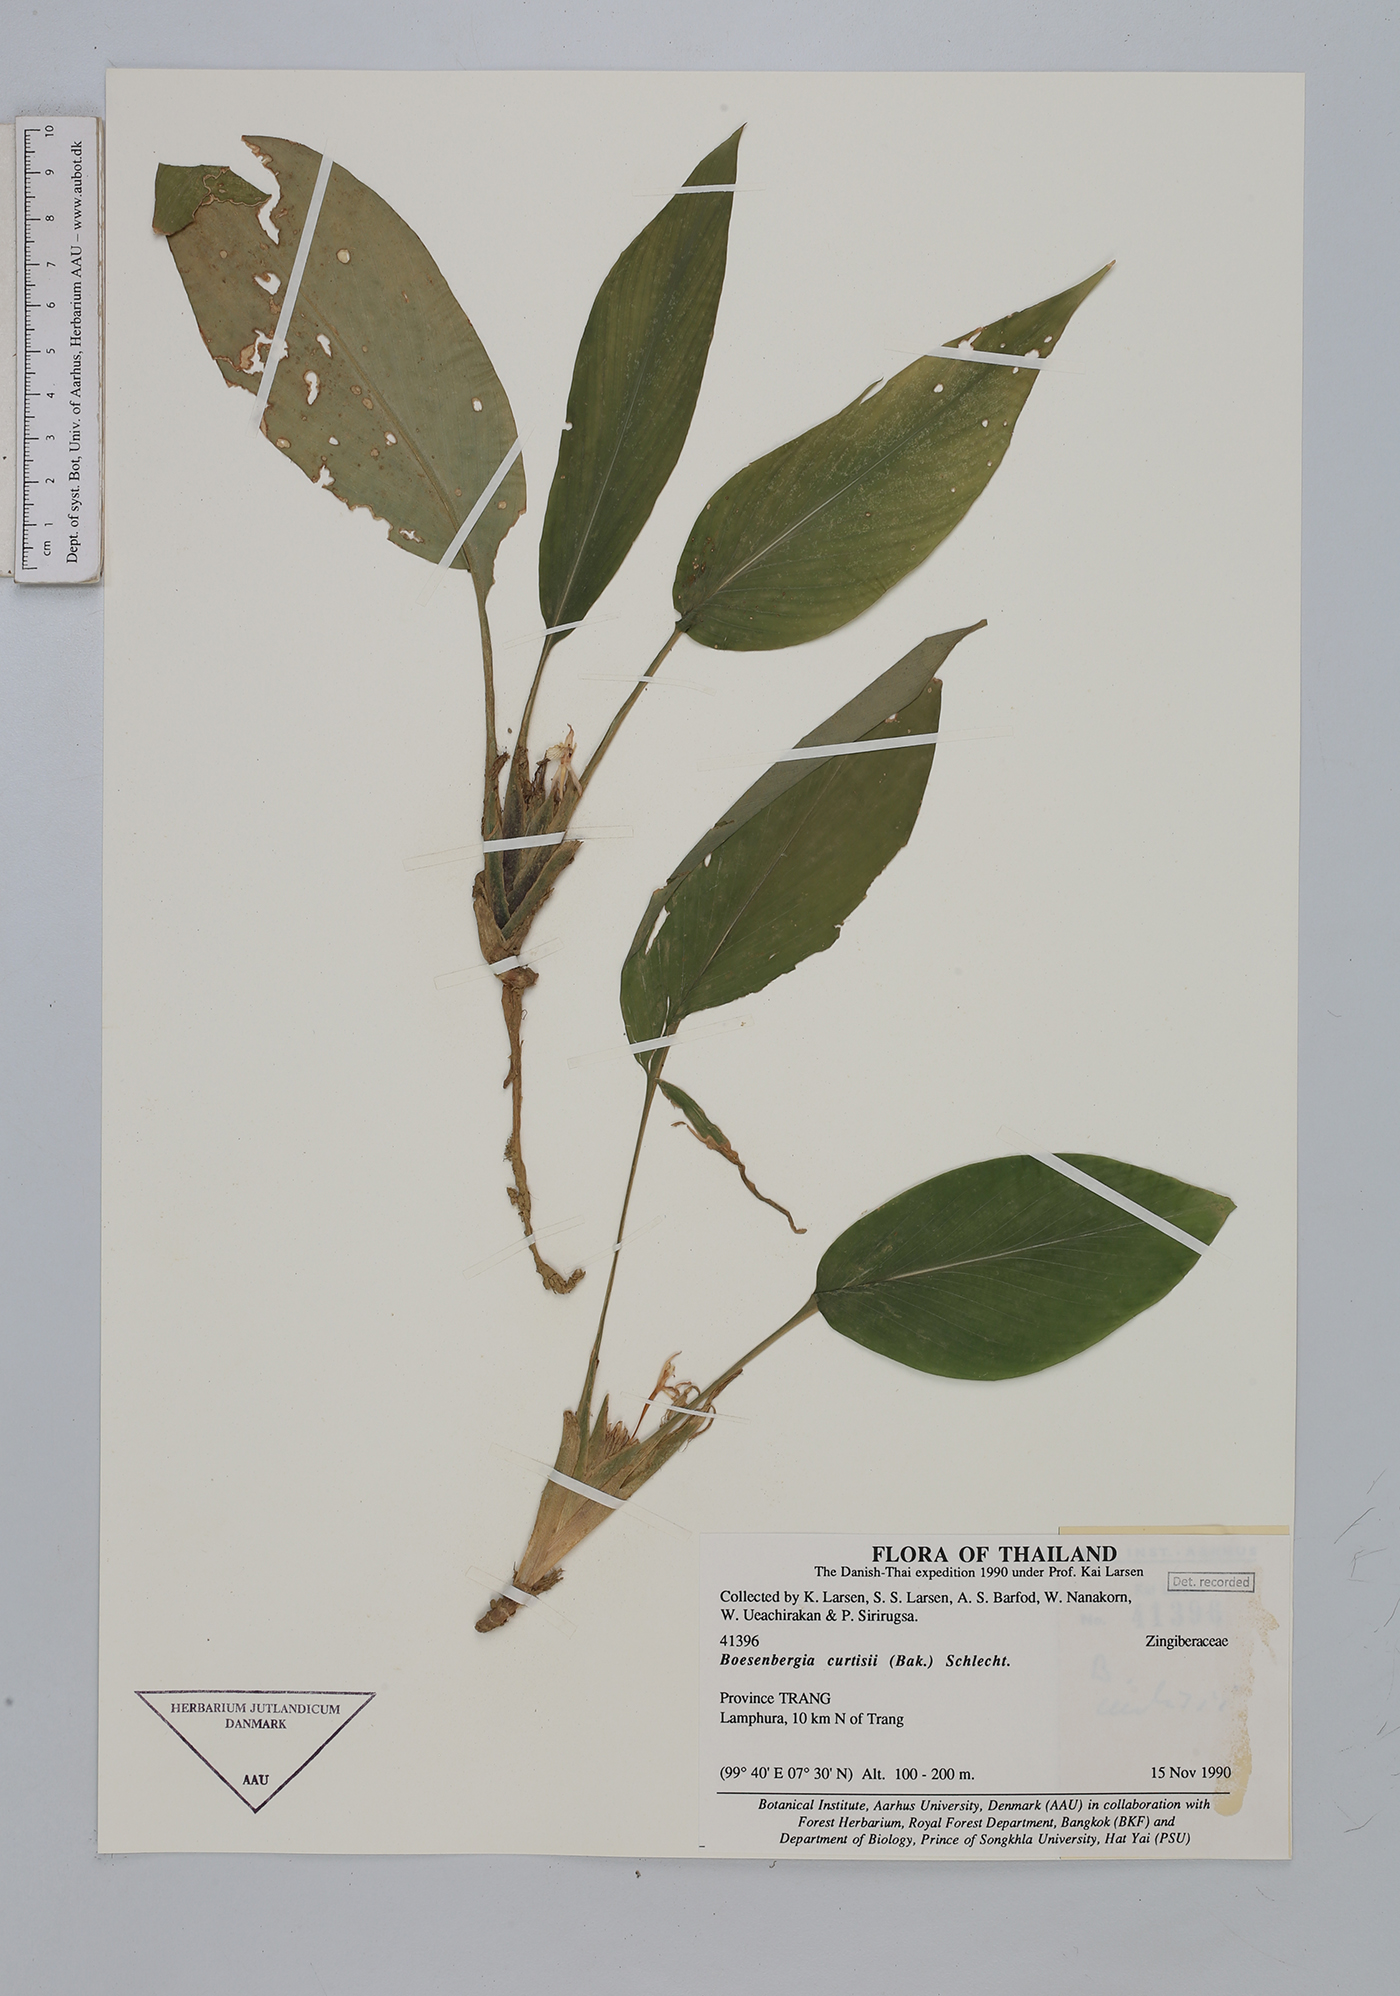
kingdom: Plantae
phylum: Tracheophyta
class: Liliopsida
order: Zingiberales
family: Zingiberaceae
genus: Boesenbergia
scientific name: Boesenbergia curtisii
